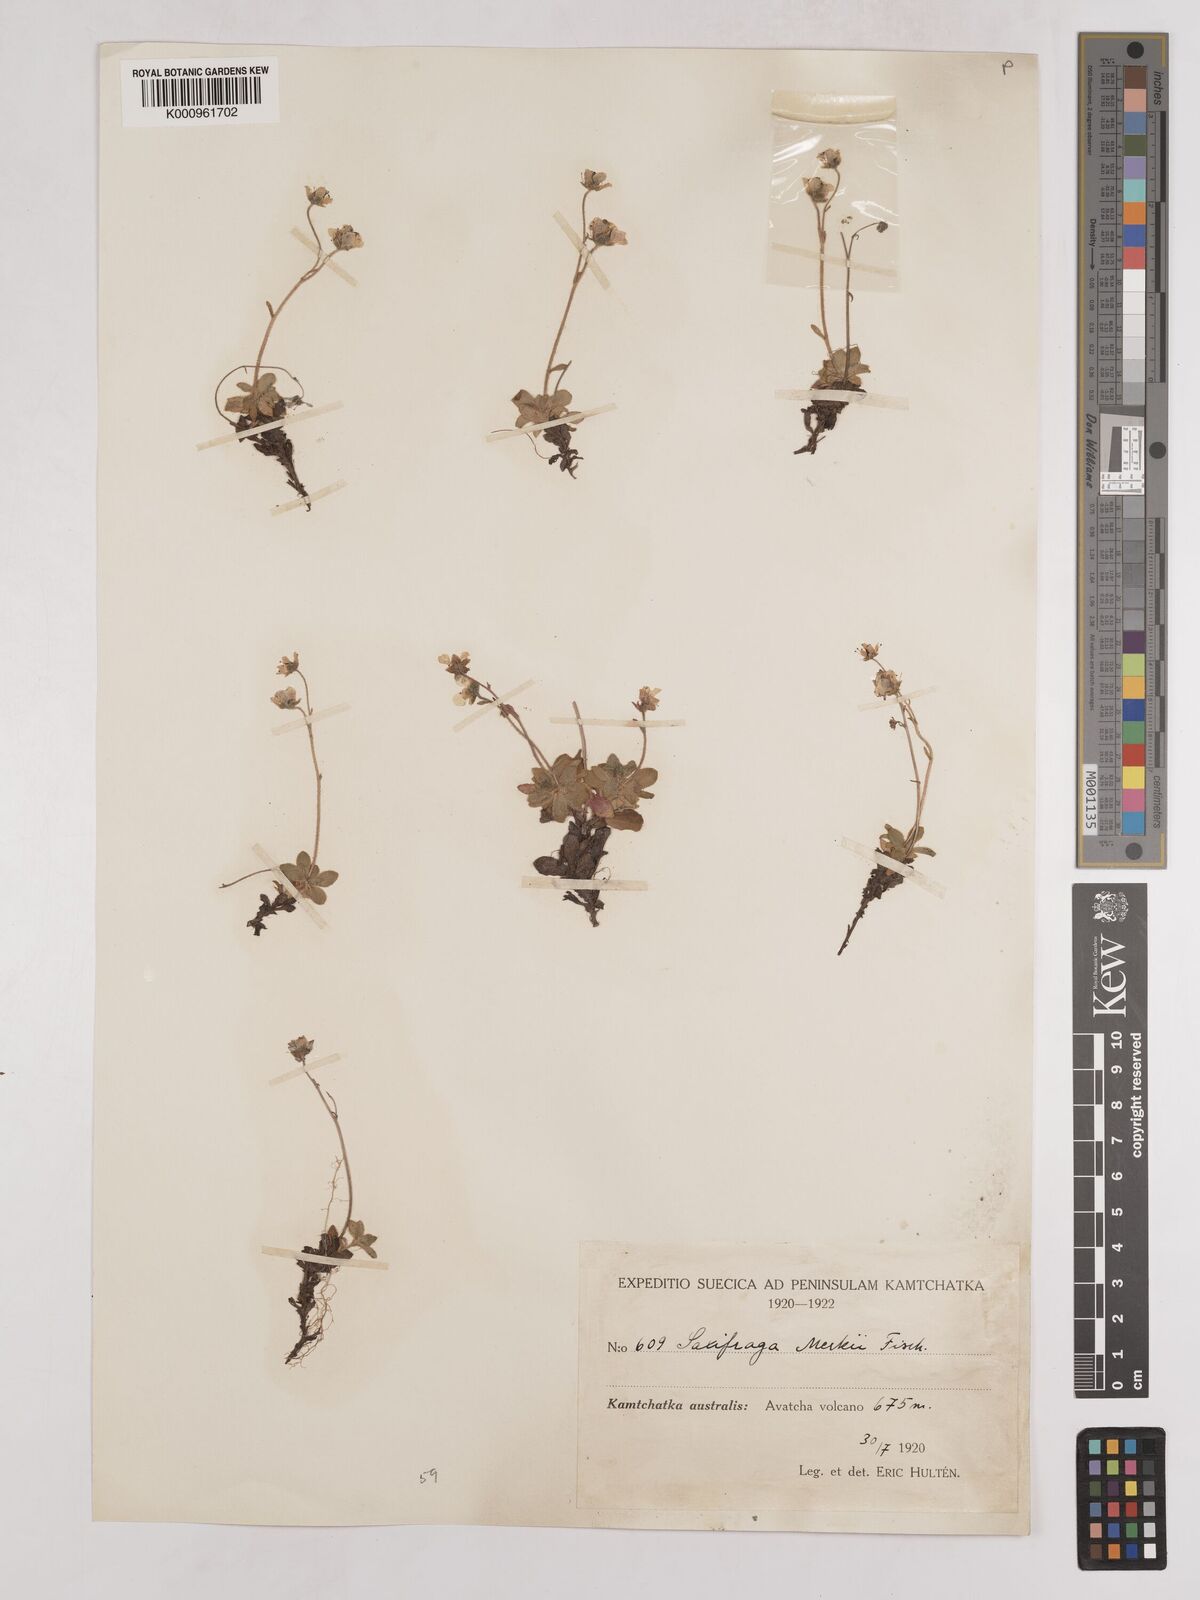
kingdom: Plantae
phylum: Tracheophyta
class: Magnoliopsida
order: Saxifragales
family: Saxifragaceae
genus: Micranthes
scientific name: Micranthes merkii
